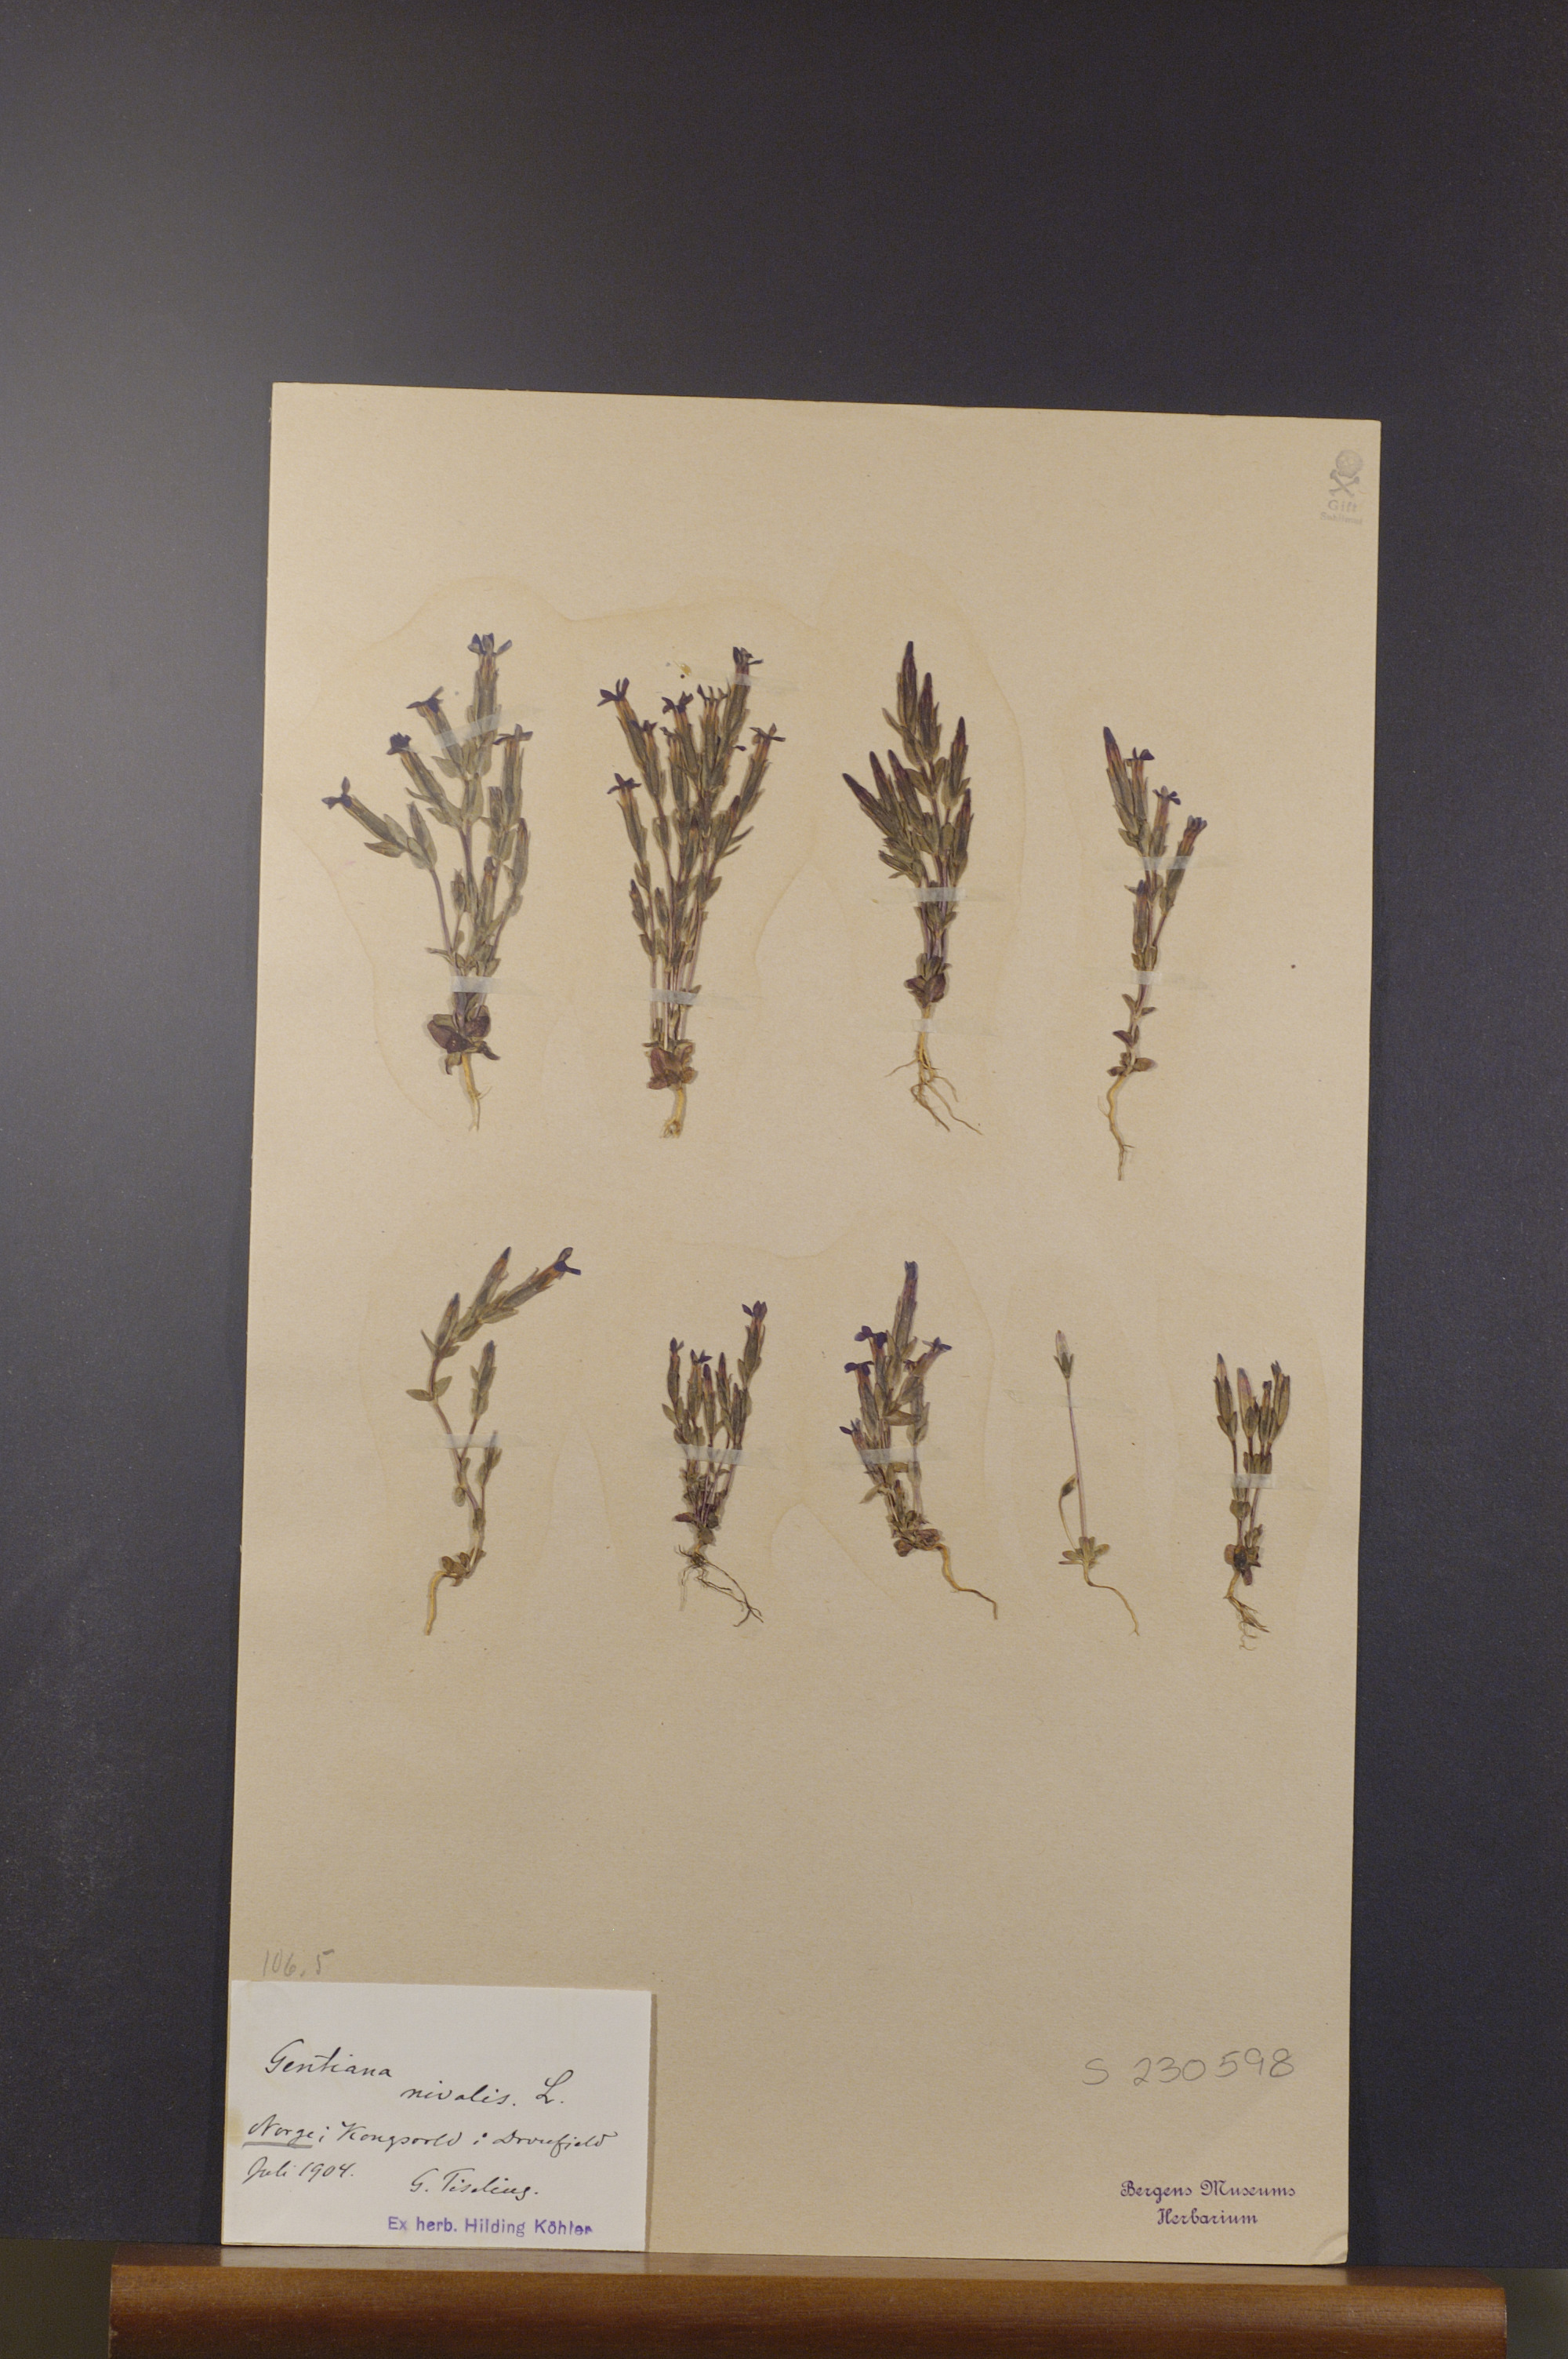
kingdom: Plantae
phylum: Tracheophyta
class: Magnoliopsida
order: Gentianales
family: Gentianaceae
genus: Gentiana
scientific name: Gentiana nivalis
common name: Alpine gentian
